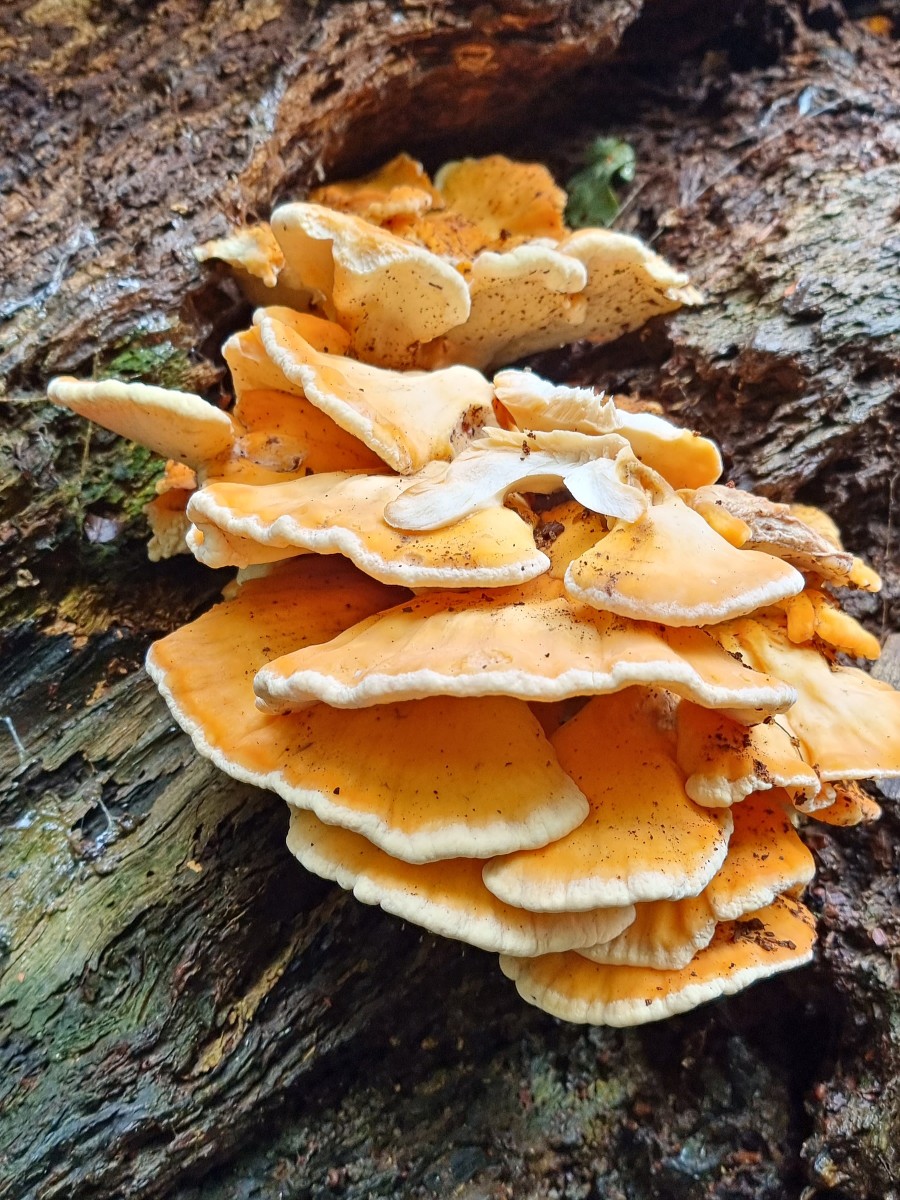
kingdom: Fungi
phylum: Basidiomycota
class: Agaricomycetes
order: Polyporales
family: Laetiporaceae
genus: Laetiporus
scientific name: Laetiporus sulphureus
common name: svovlporesvamp
